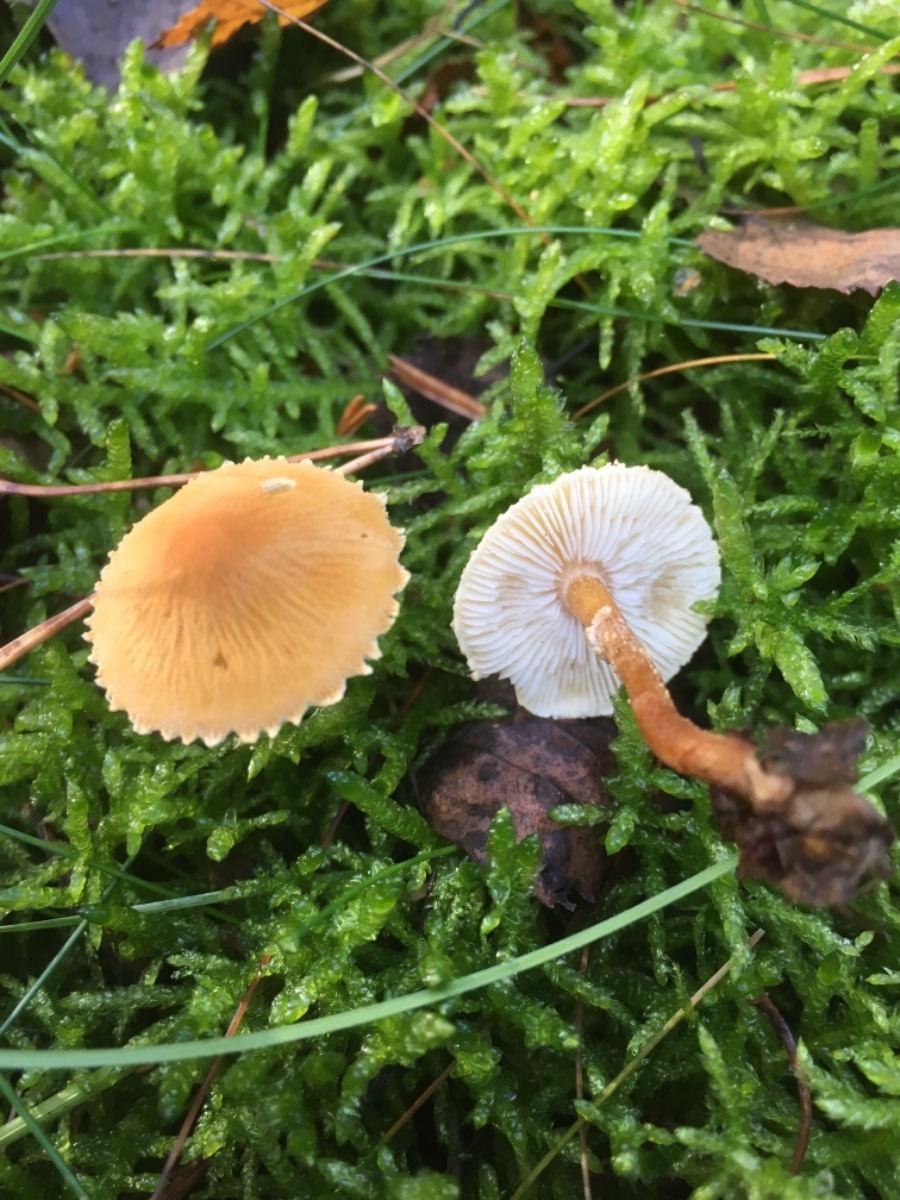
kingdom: Fungi
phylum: Basidiomycota
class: Agaricomycetes
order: Agaricales
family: Tricholomataceae
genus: Cystoderma
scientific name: Cystoderma amianthinum
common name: okkergul grynhat
